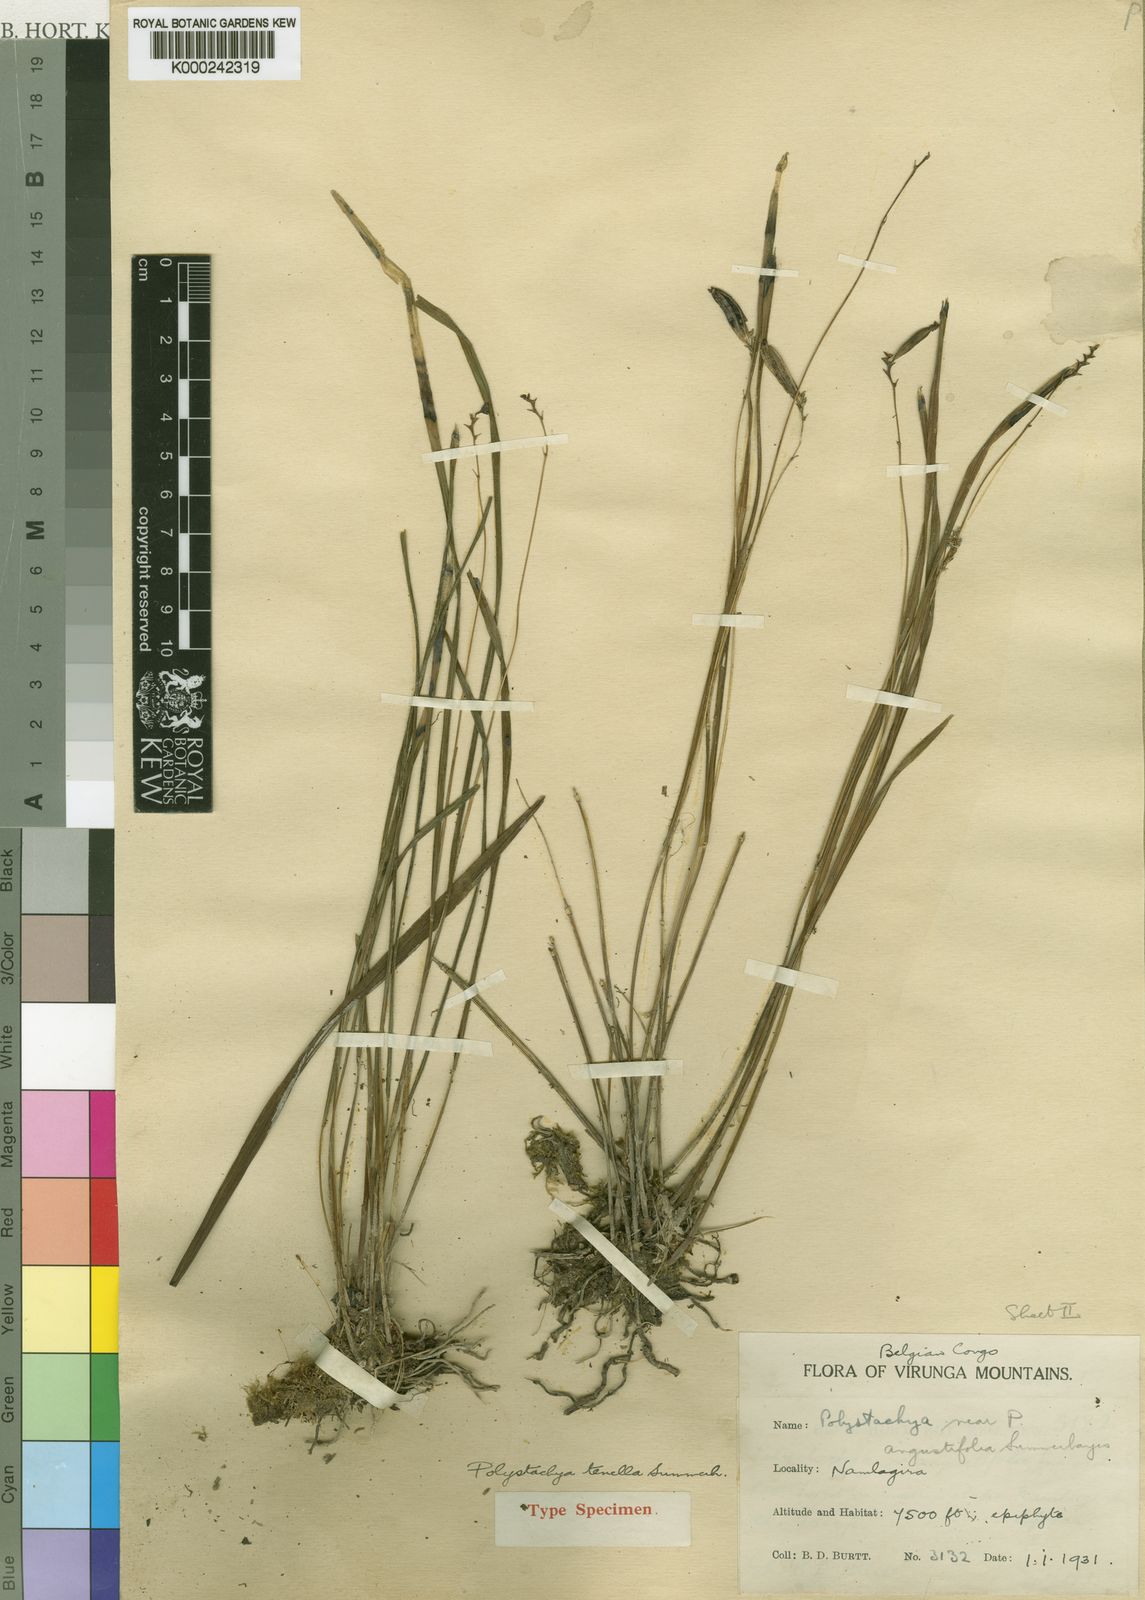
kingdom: Plantae
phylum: Tracheophyta
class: Liliopsida
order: Asparagales
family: Orchidaceae
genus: Polystachya
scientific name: Polystachya tenella
